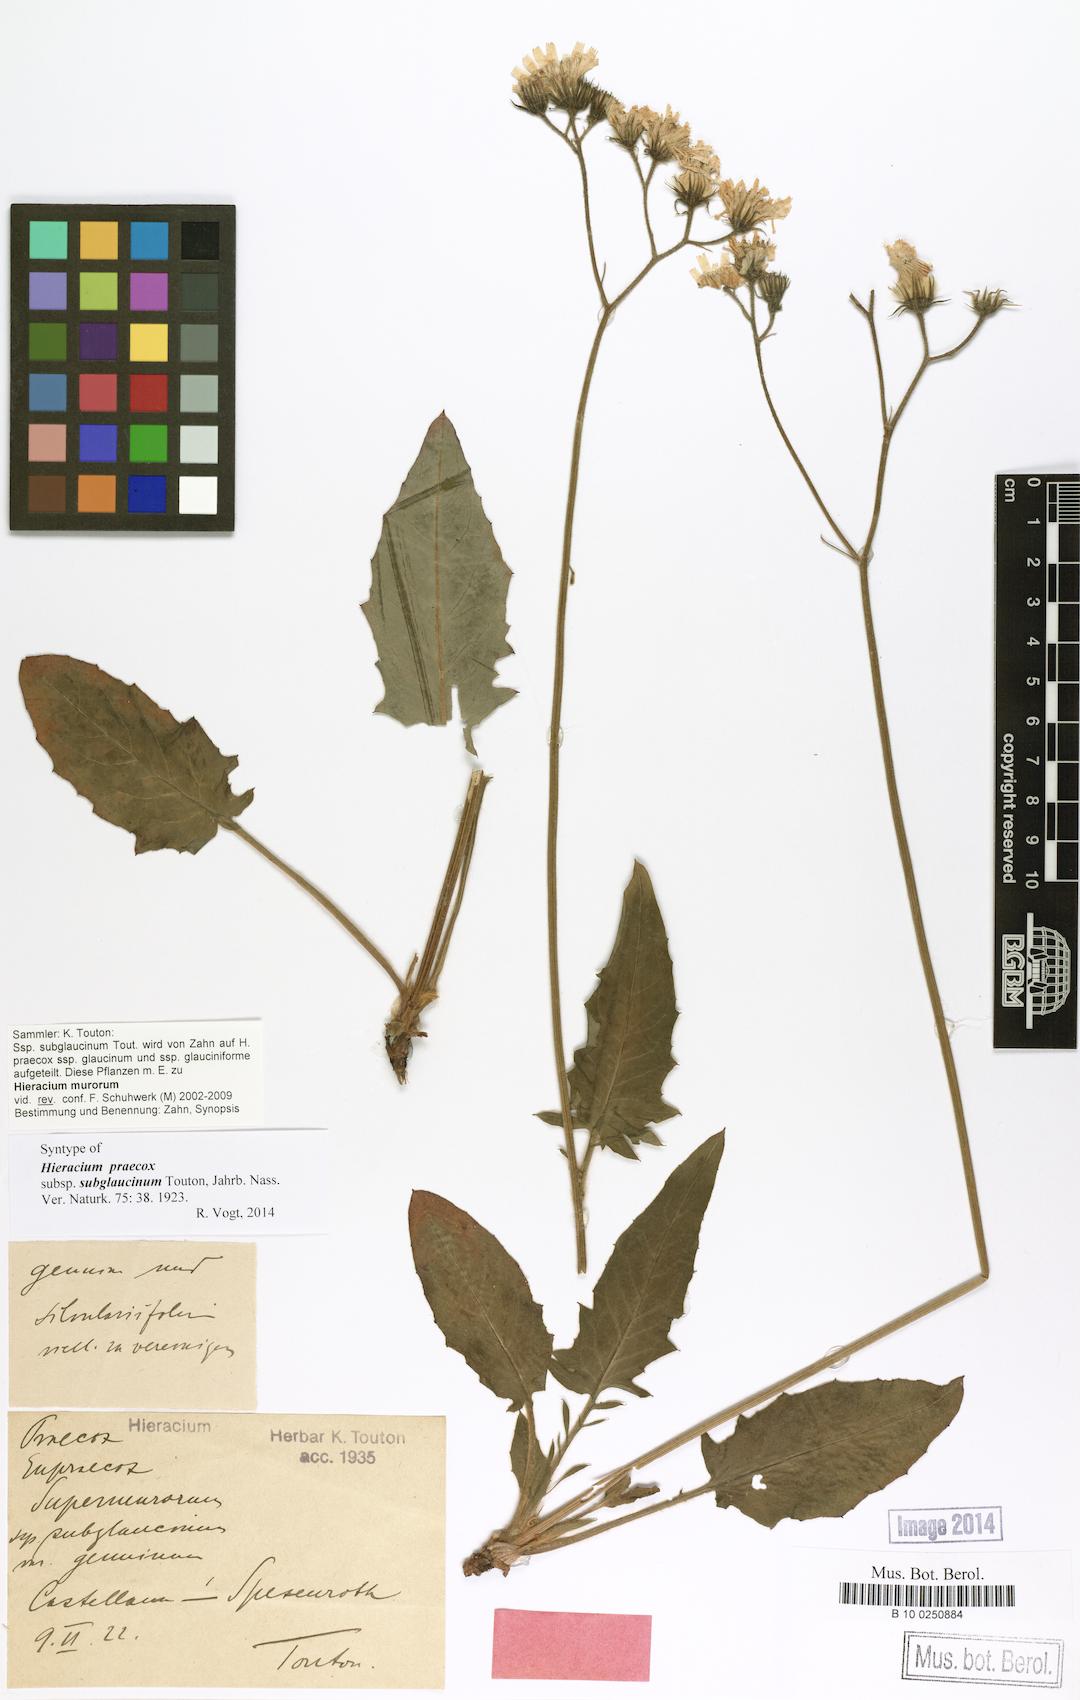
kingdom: Plantae
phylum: Tracheophyta
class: Magnoliopsida
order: Asterales
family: Asteraceae
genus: Hieracium
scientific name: Hieracium glaucinum
